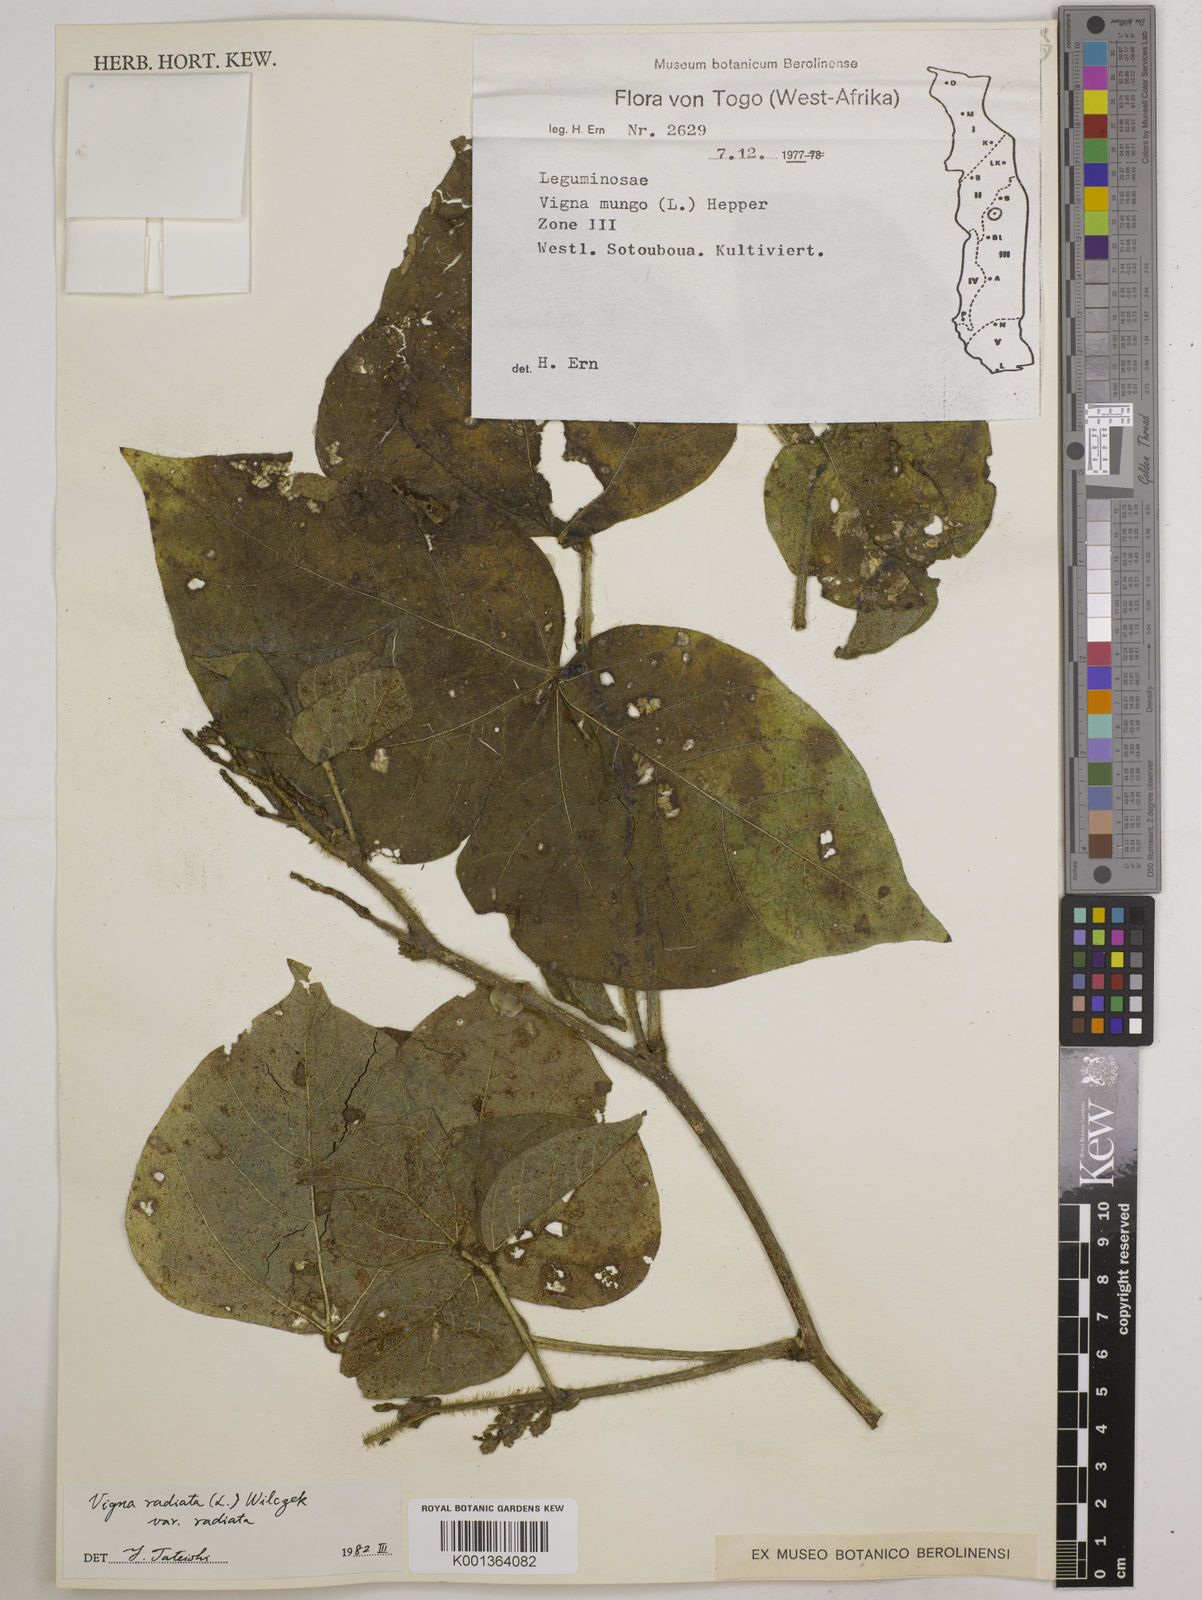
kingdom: Plantae
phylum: Tracheophyta
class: Magnoliopsida
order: Fabales
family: Fabaceae
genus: Vigna
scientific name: Vigna radiata
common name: Mung-bean
